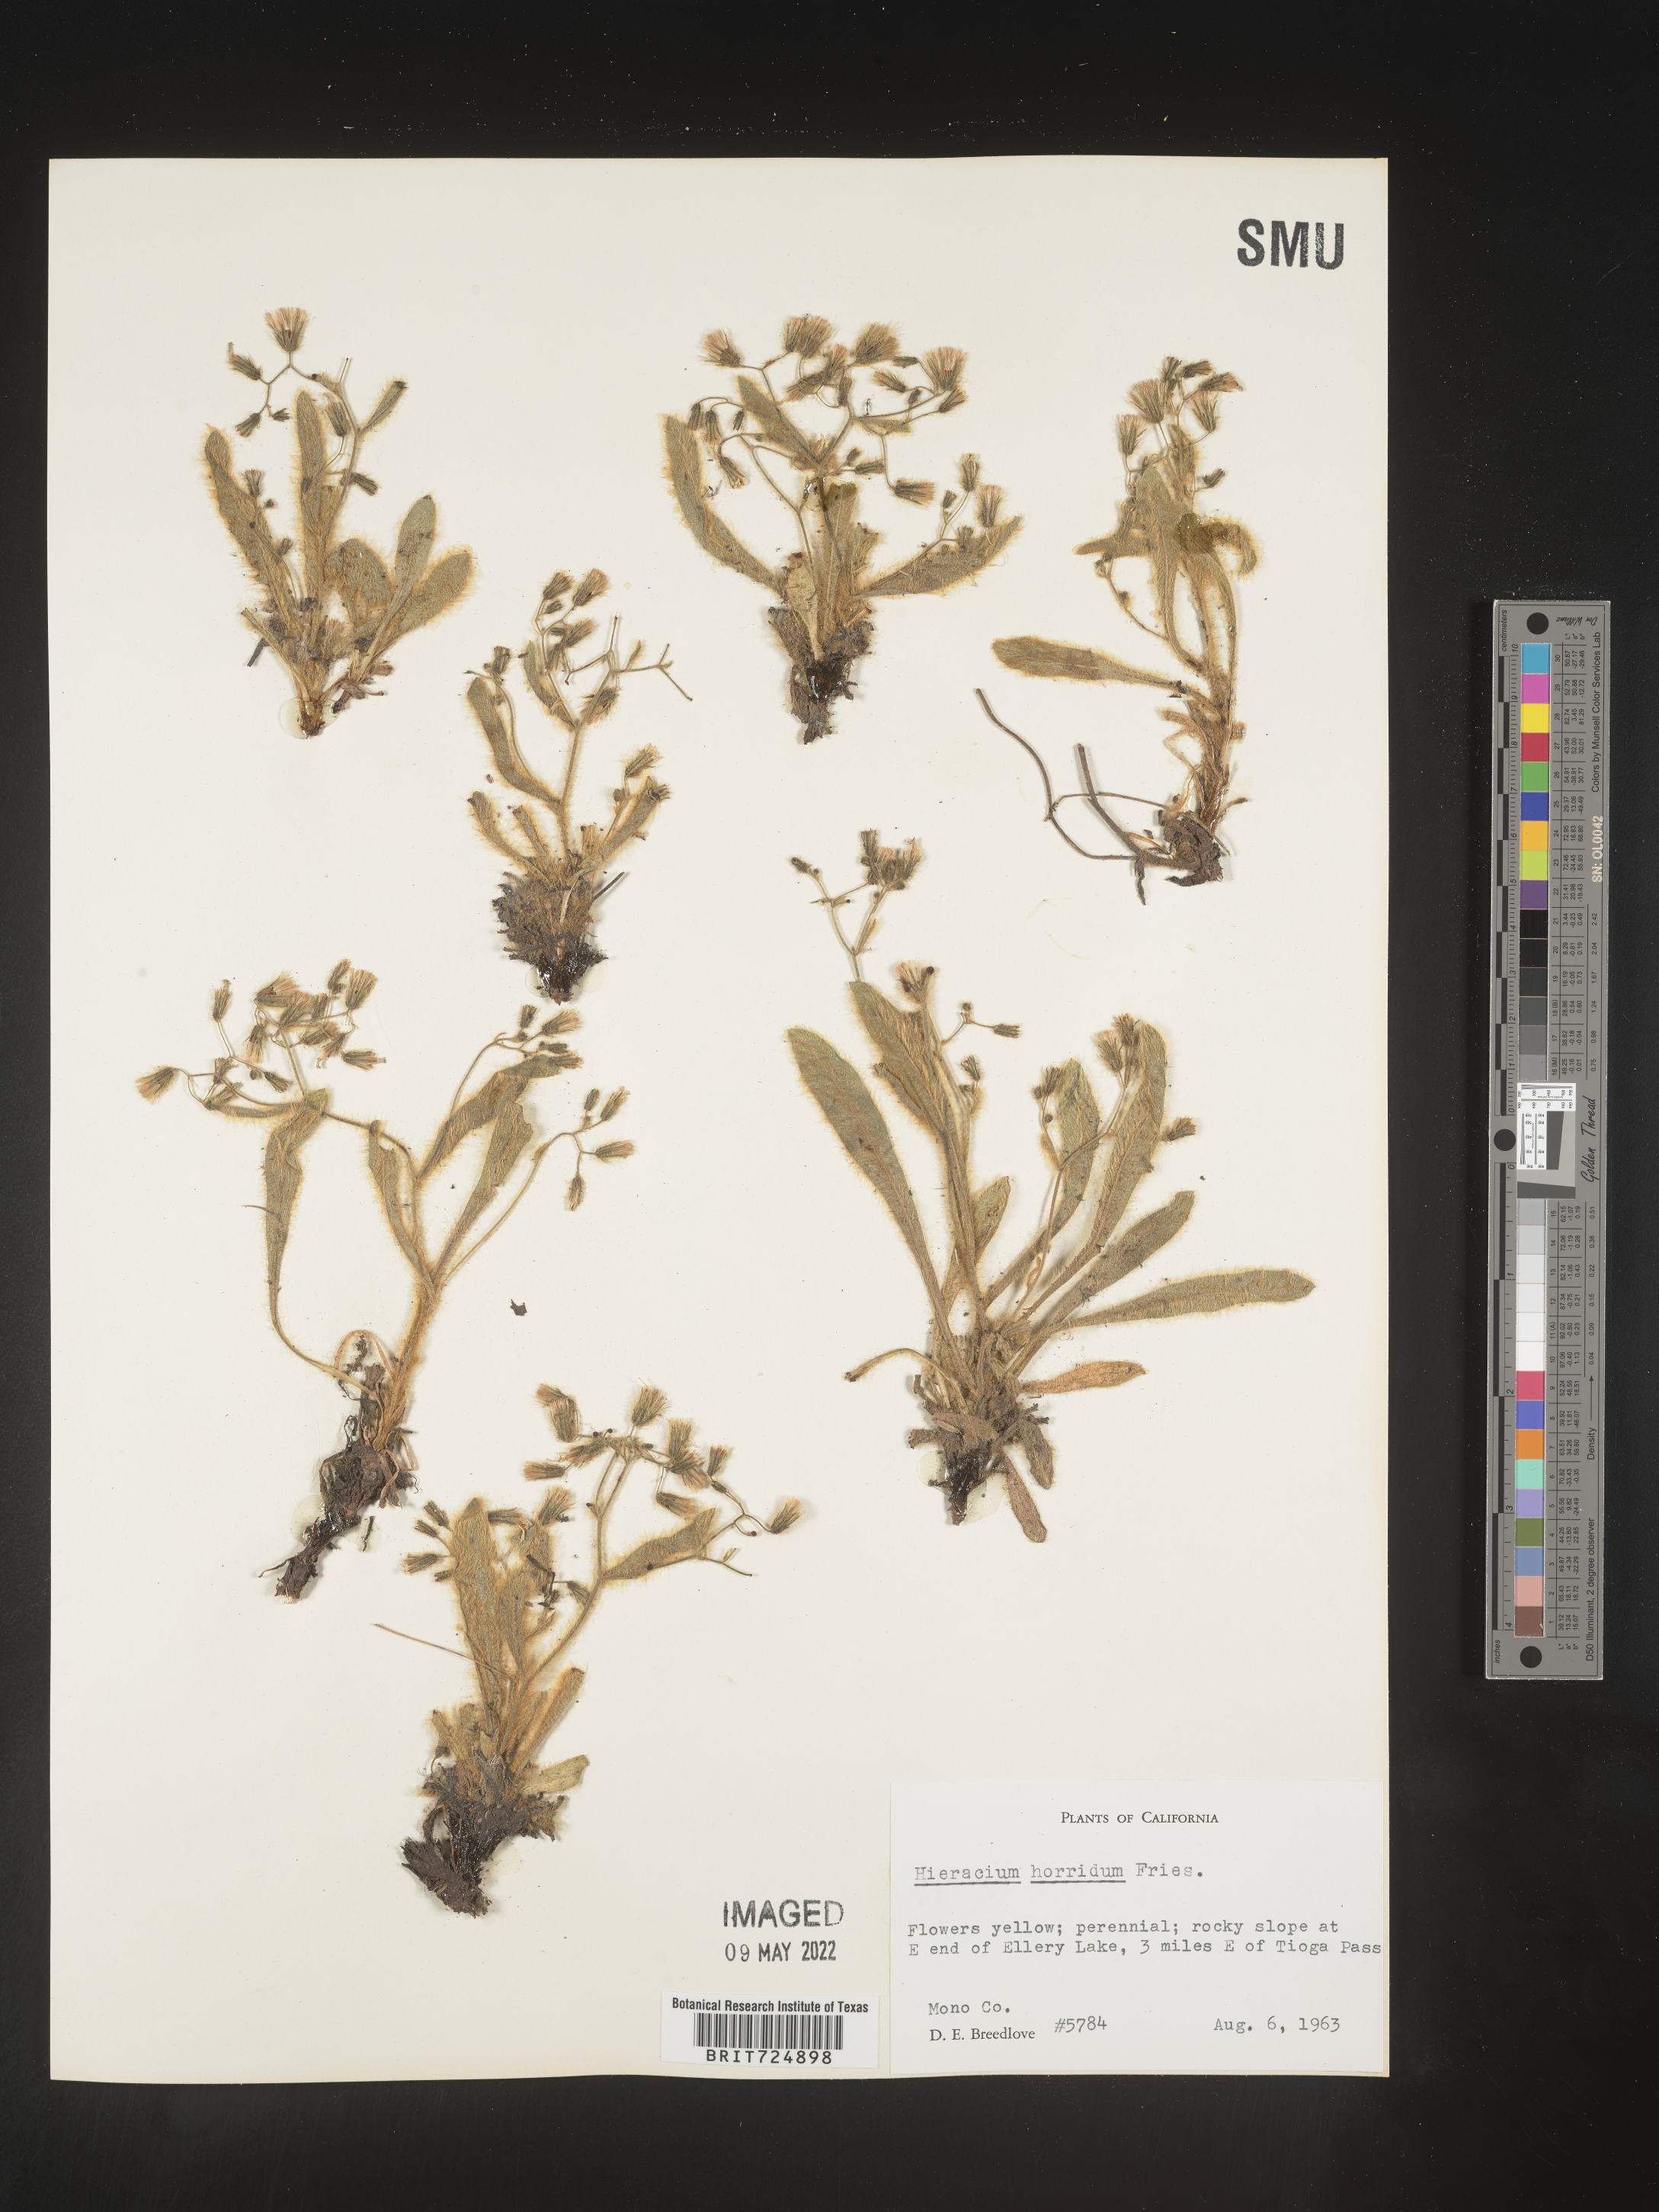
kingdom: Plantae
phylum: Tracheophyta
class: Magnoliopsida
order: Asterales
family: Asteraceae
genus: Hieracium
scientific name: Hieracium
